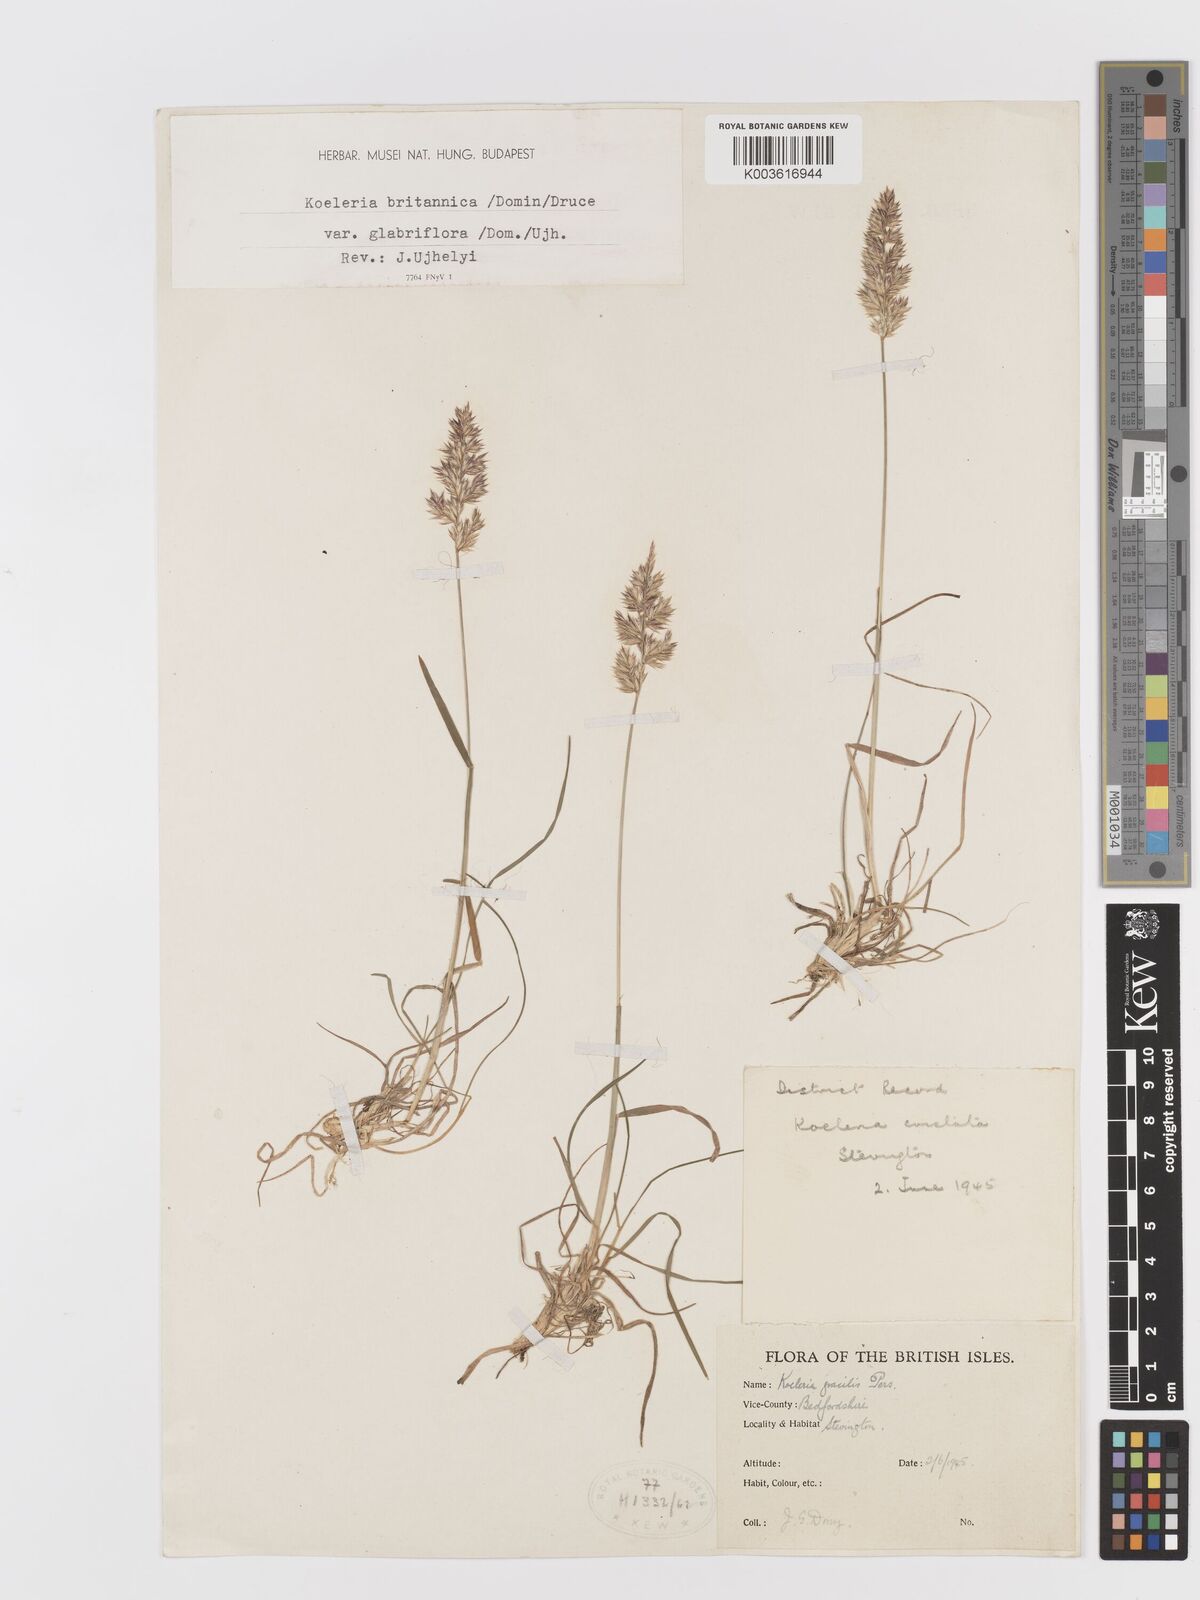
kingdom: Plantae
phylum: Tracheophyta
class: Liliopsida
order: Poales
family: Poaceae
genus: Koeleria
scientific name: Koeleria macrantha
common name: Crested hair-grass
